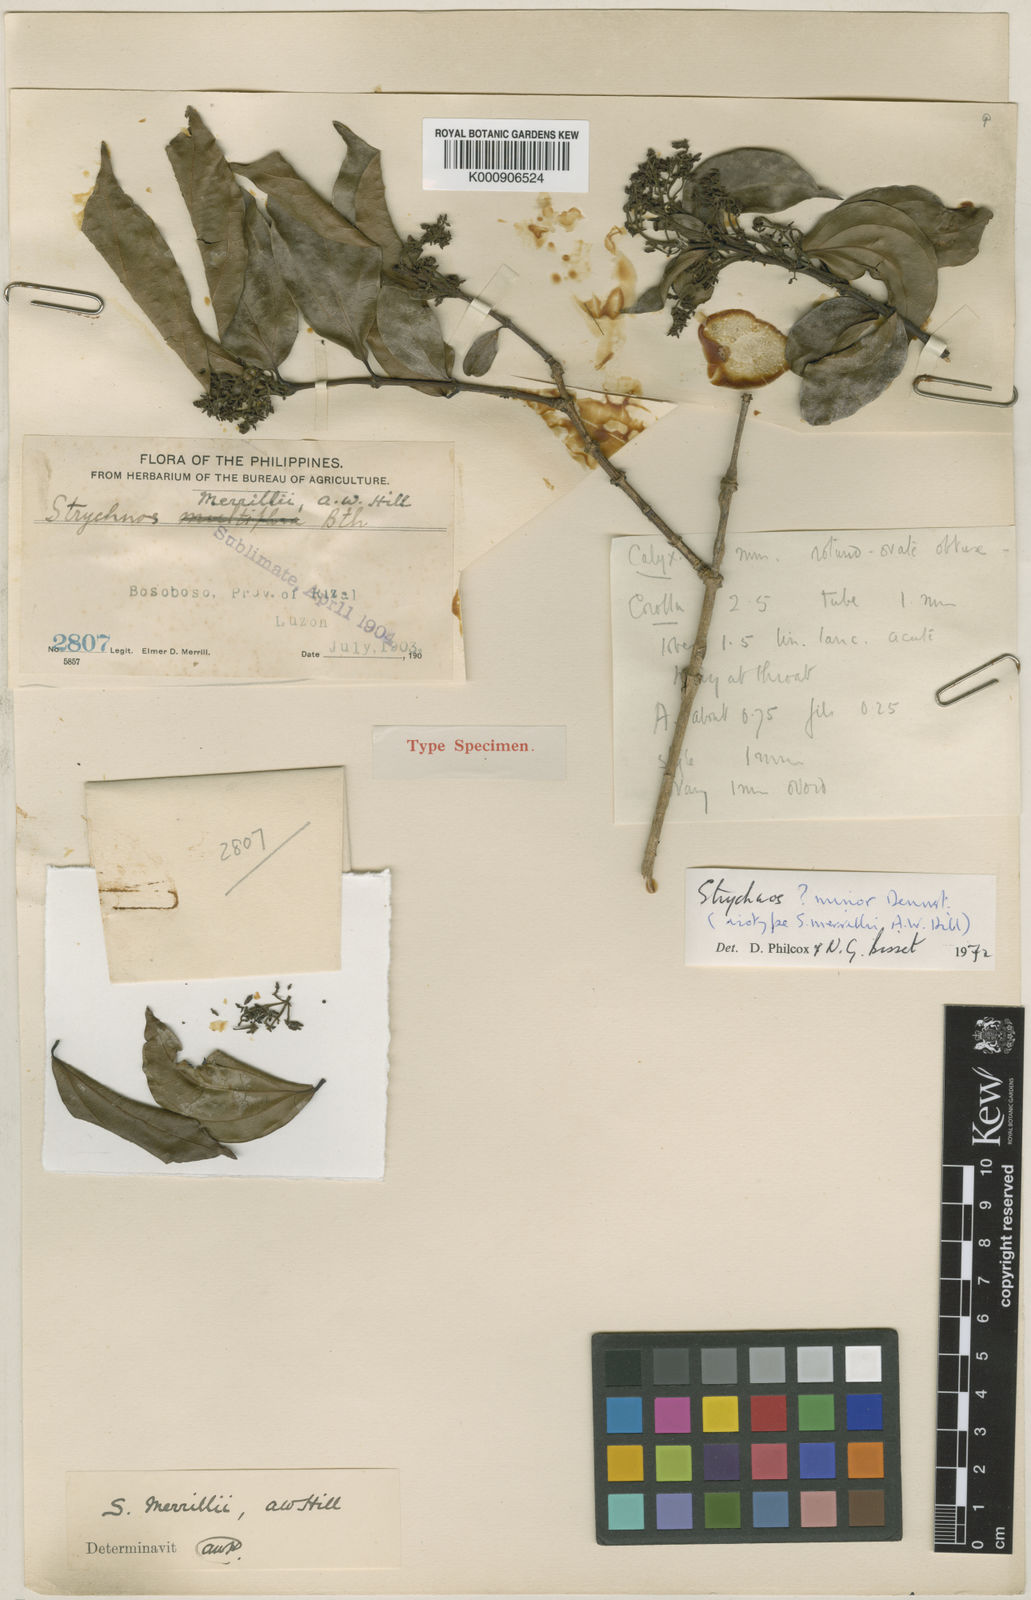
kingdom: Plantae
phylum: Tracheophyta
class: Magnoliopsida
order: Gentianales
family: Loganiaceae
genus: Strychnos
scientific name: Strychnos minor
